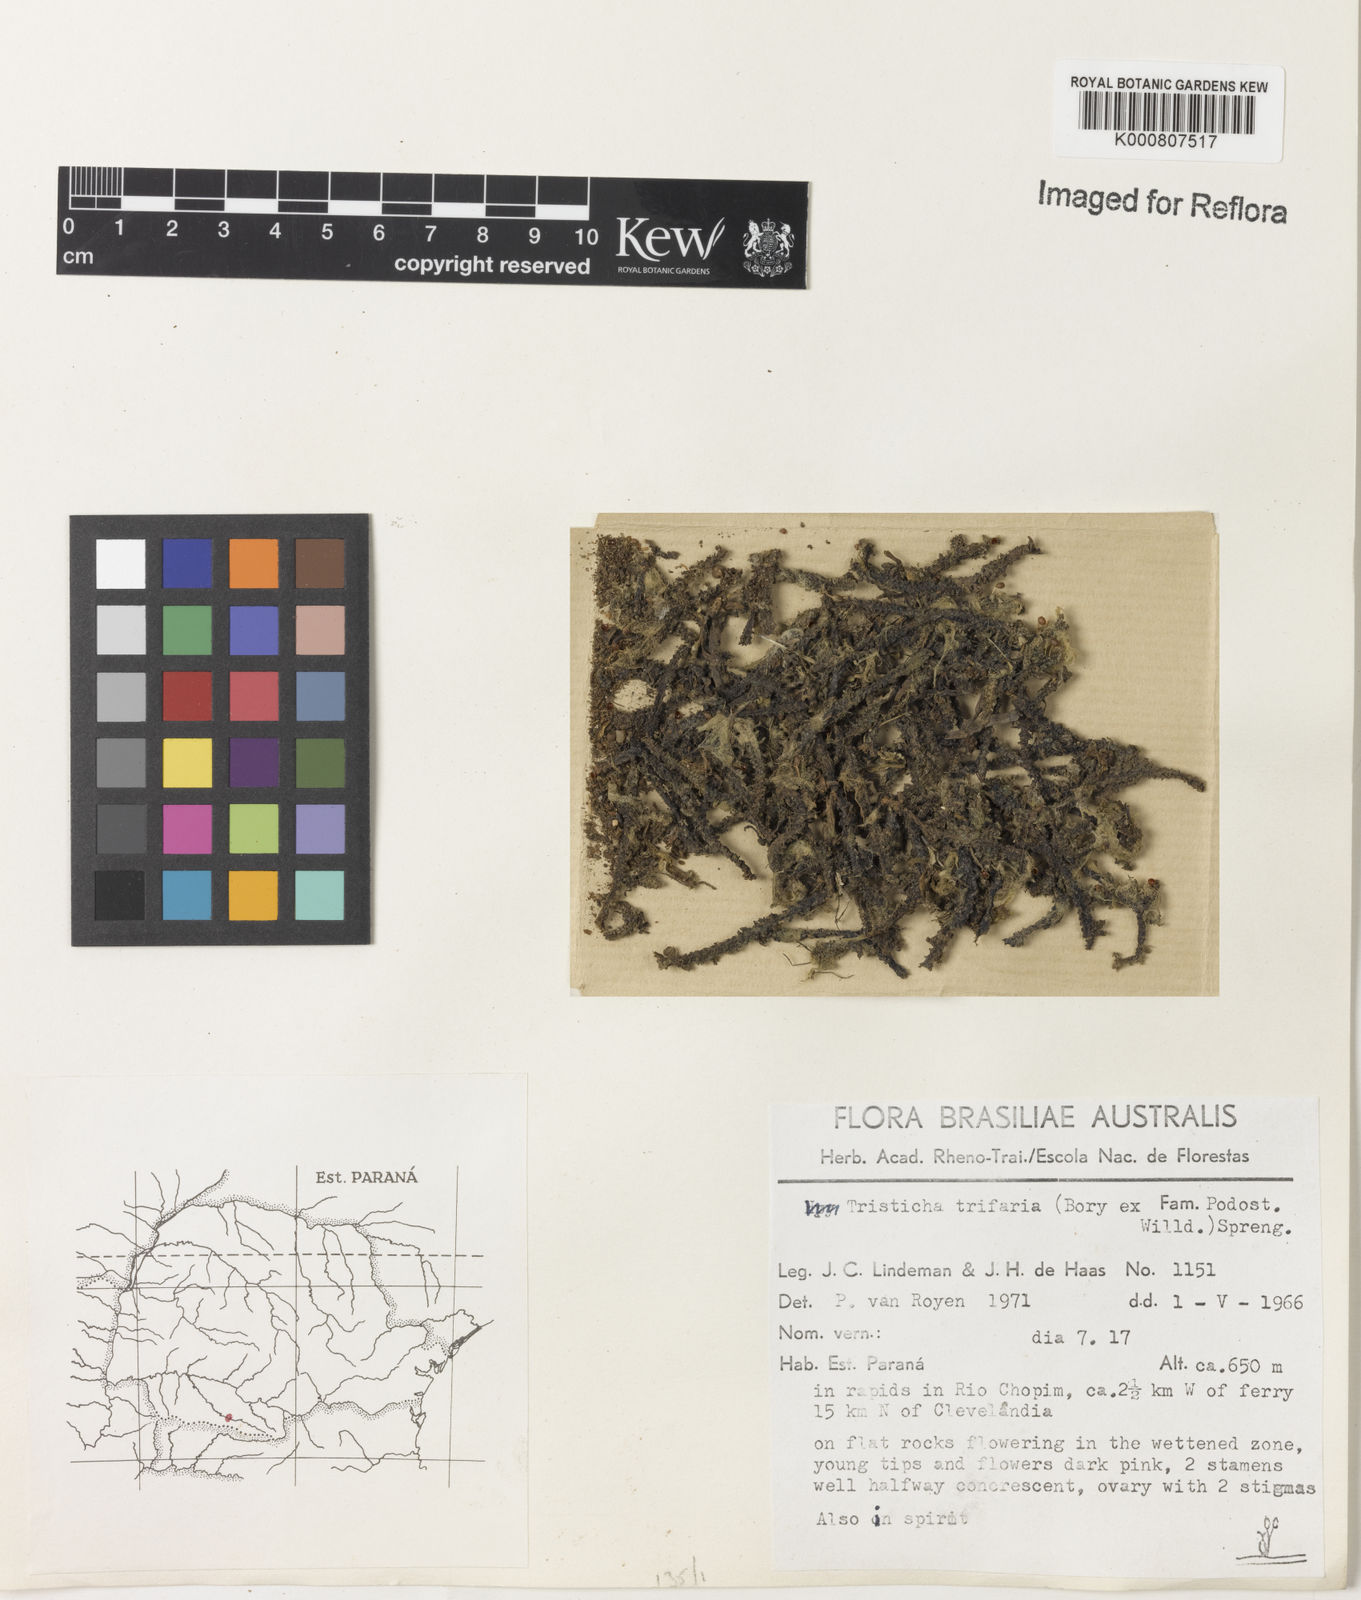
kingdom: Plantae
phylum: Tracheophyta
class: Magnoliopsida
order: Malpighiales
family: Podostemaceae
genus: Tristicha
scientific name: Tristicha trifaria
